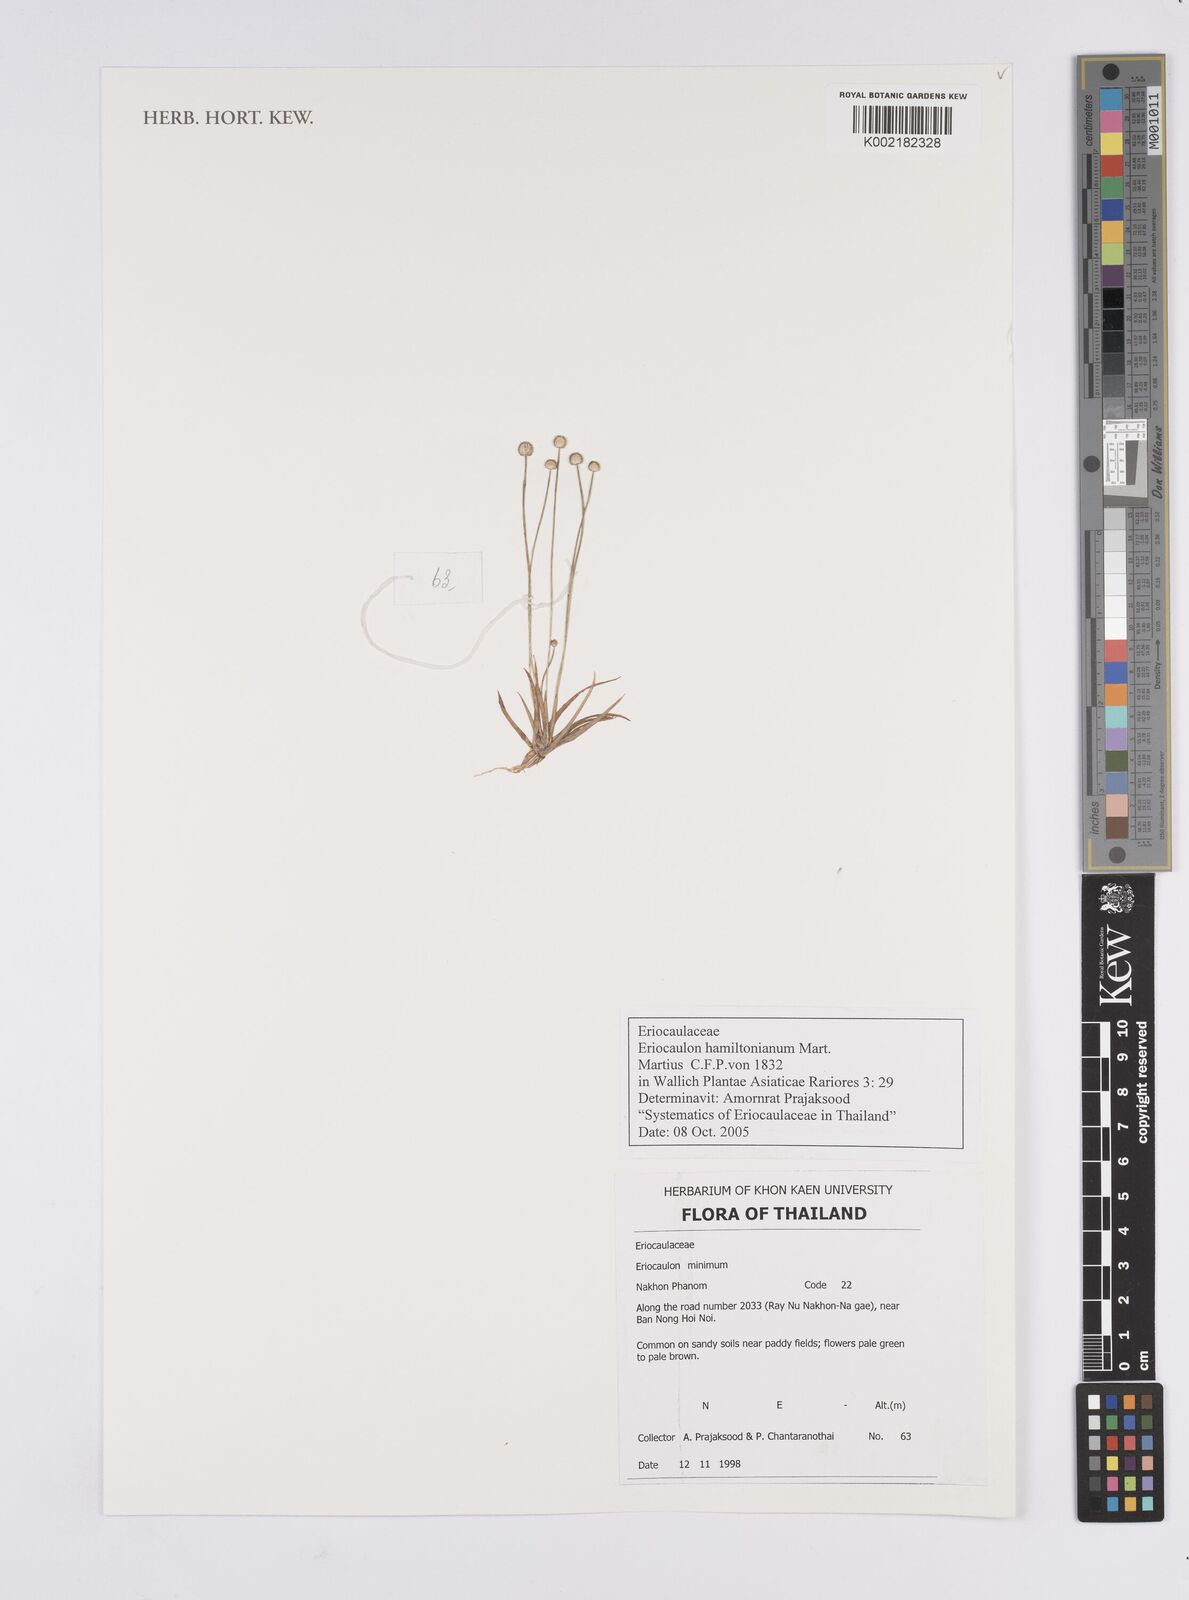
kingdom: Plantae
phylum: Tracheophyta
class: Liliopsida
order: Poales
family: Eriocaulaceae
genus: Eriocaulon
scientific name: Eriocaulon hamiltonianum
